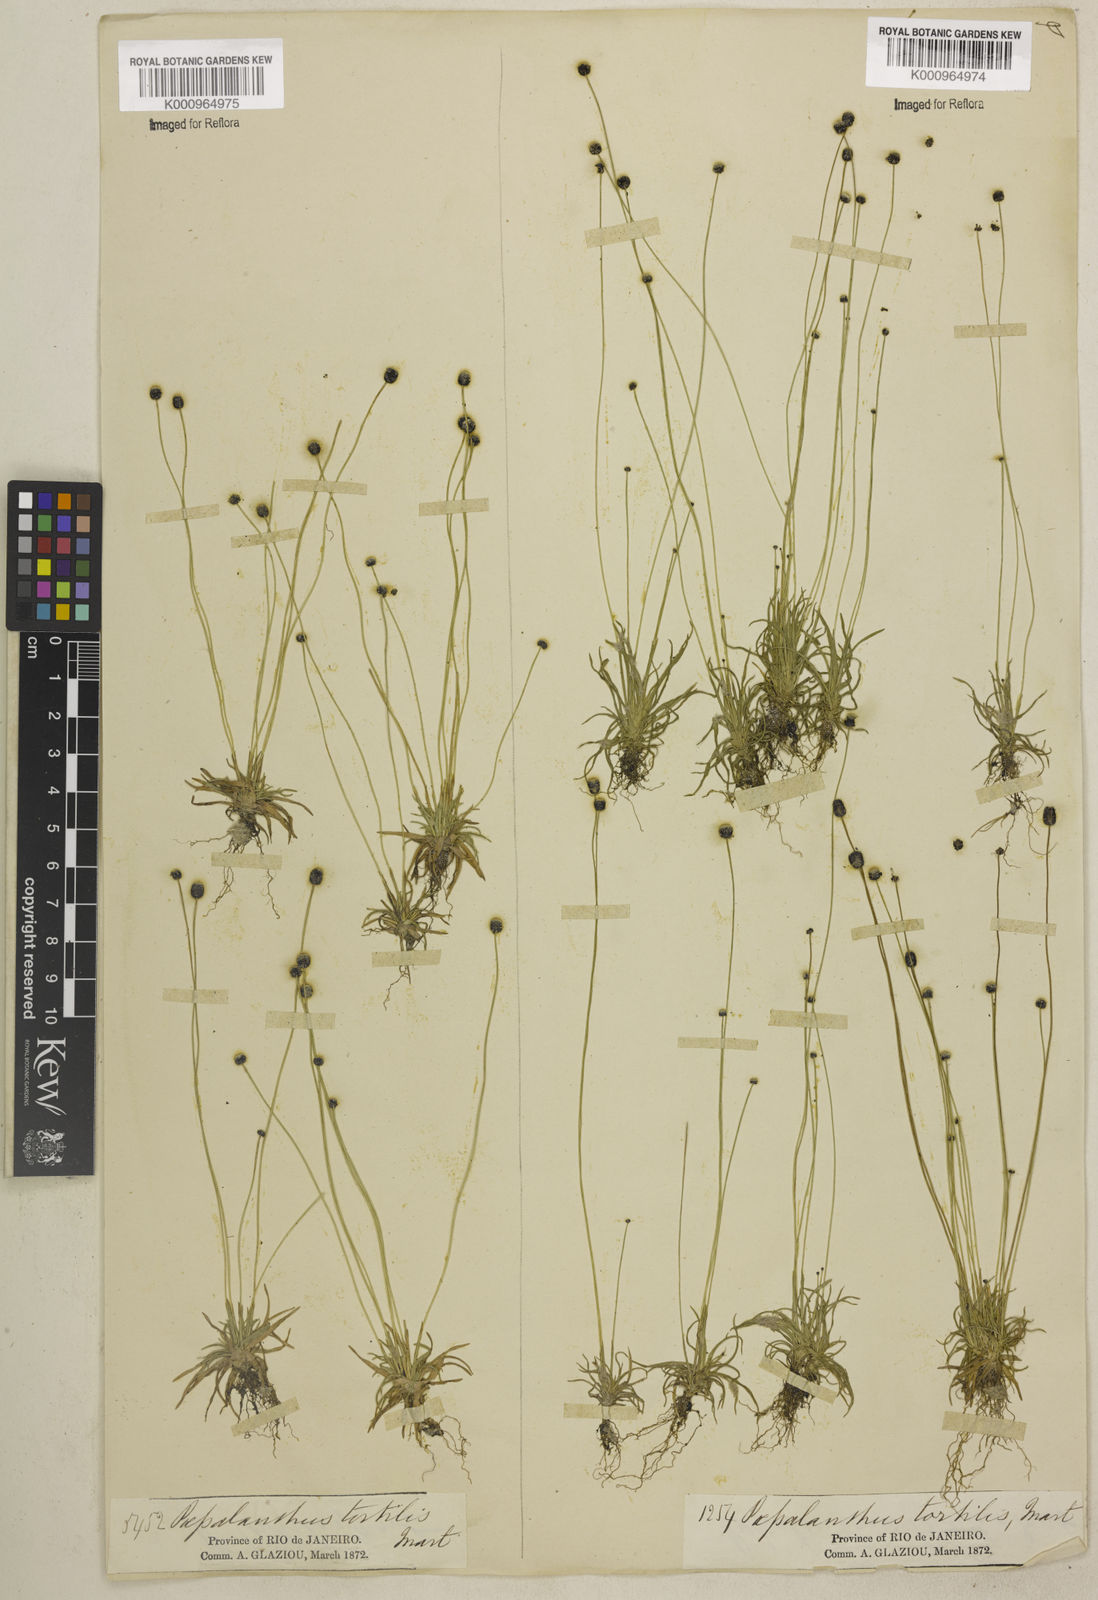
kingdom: Plantae
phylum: Tracheophyta
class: Liliopsida
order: Poales
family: Eriocaulaceae
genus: Paepalanthus
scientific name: Paepalanthus
